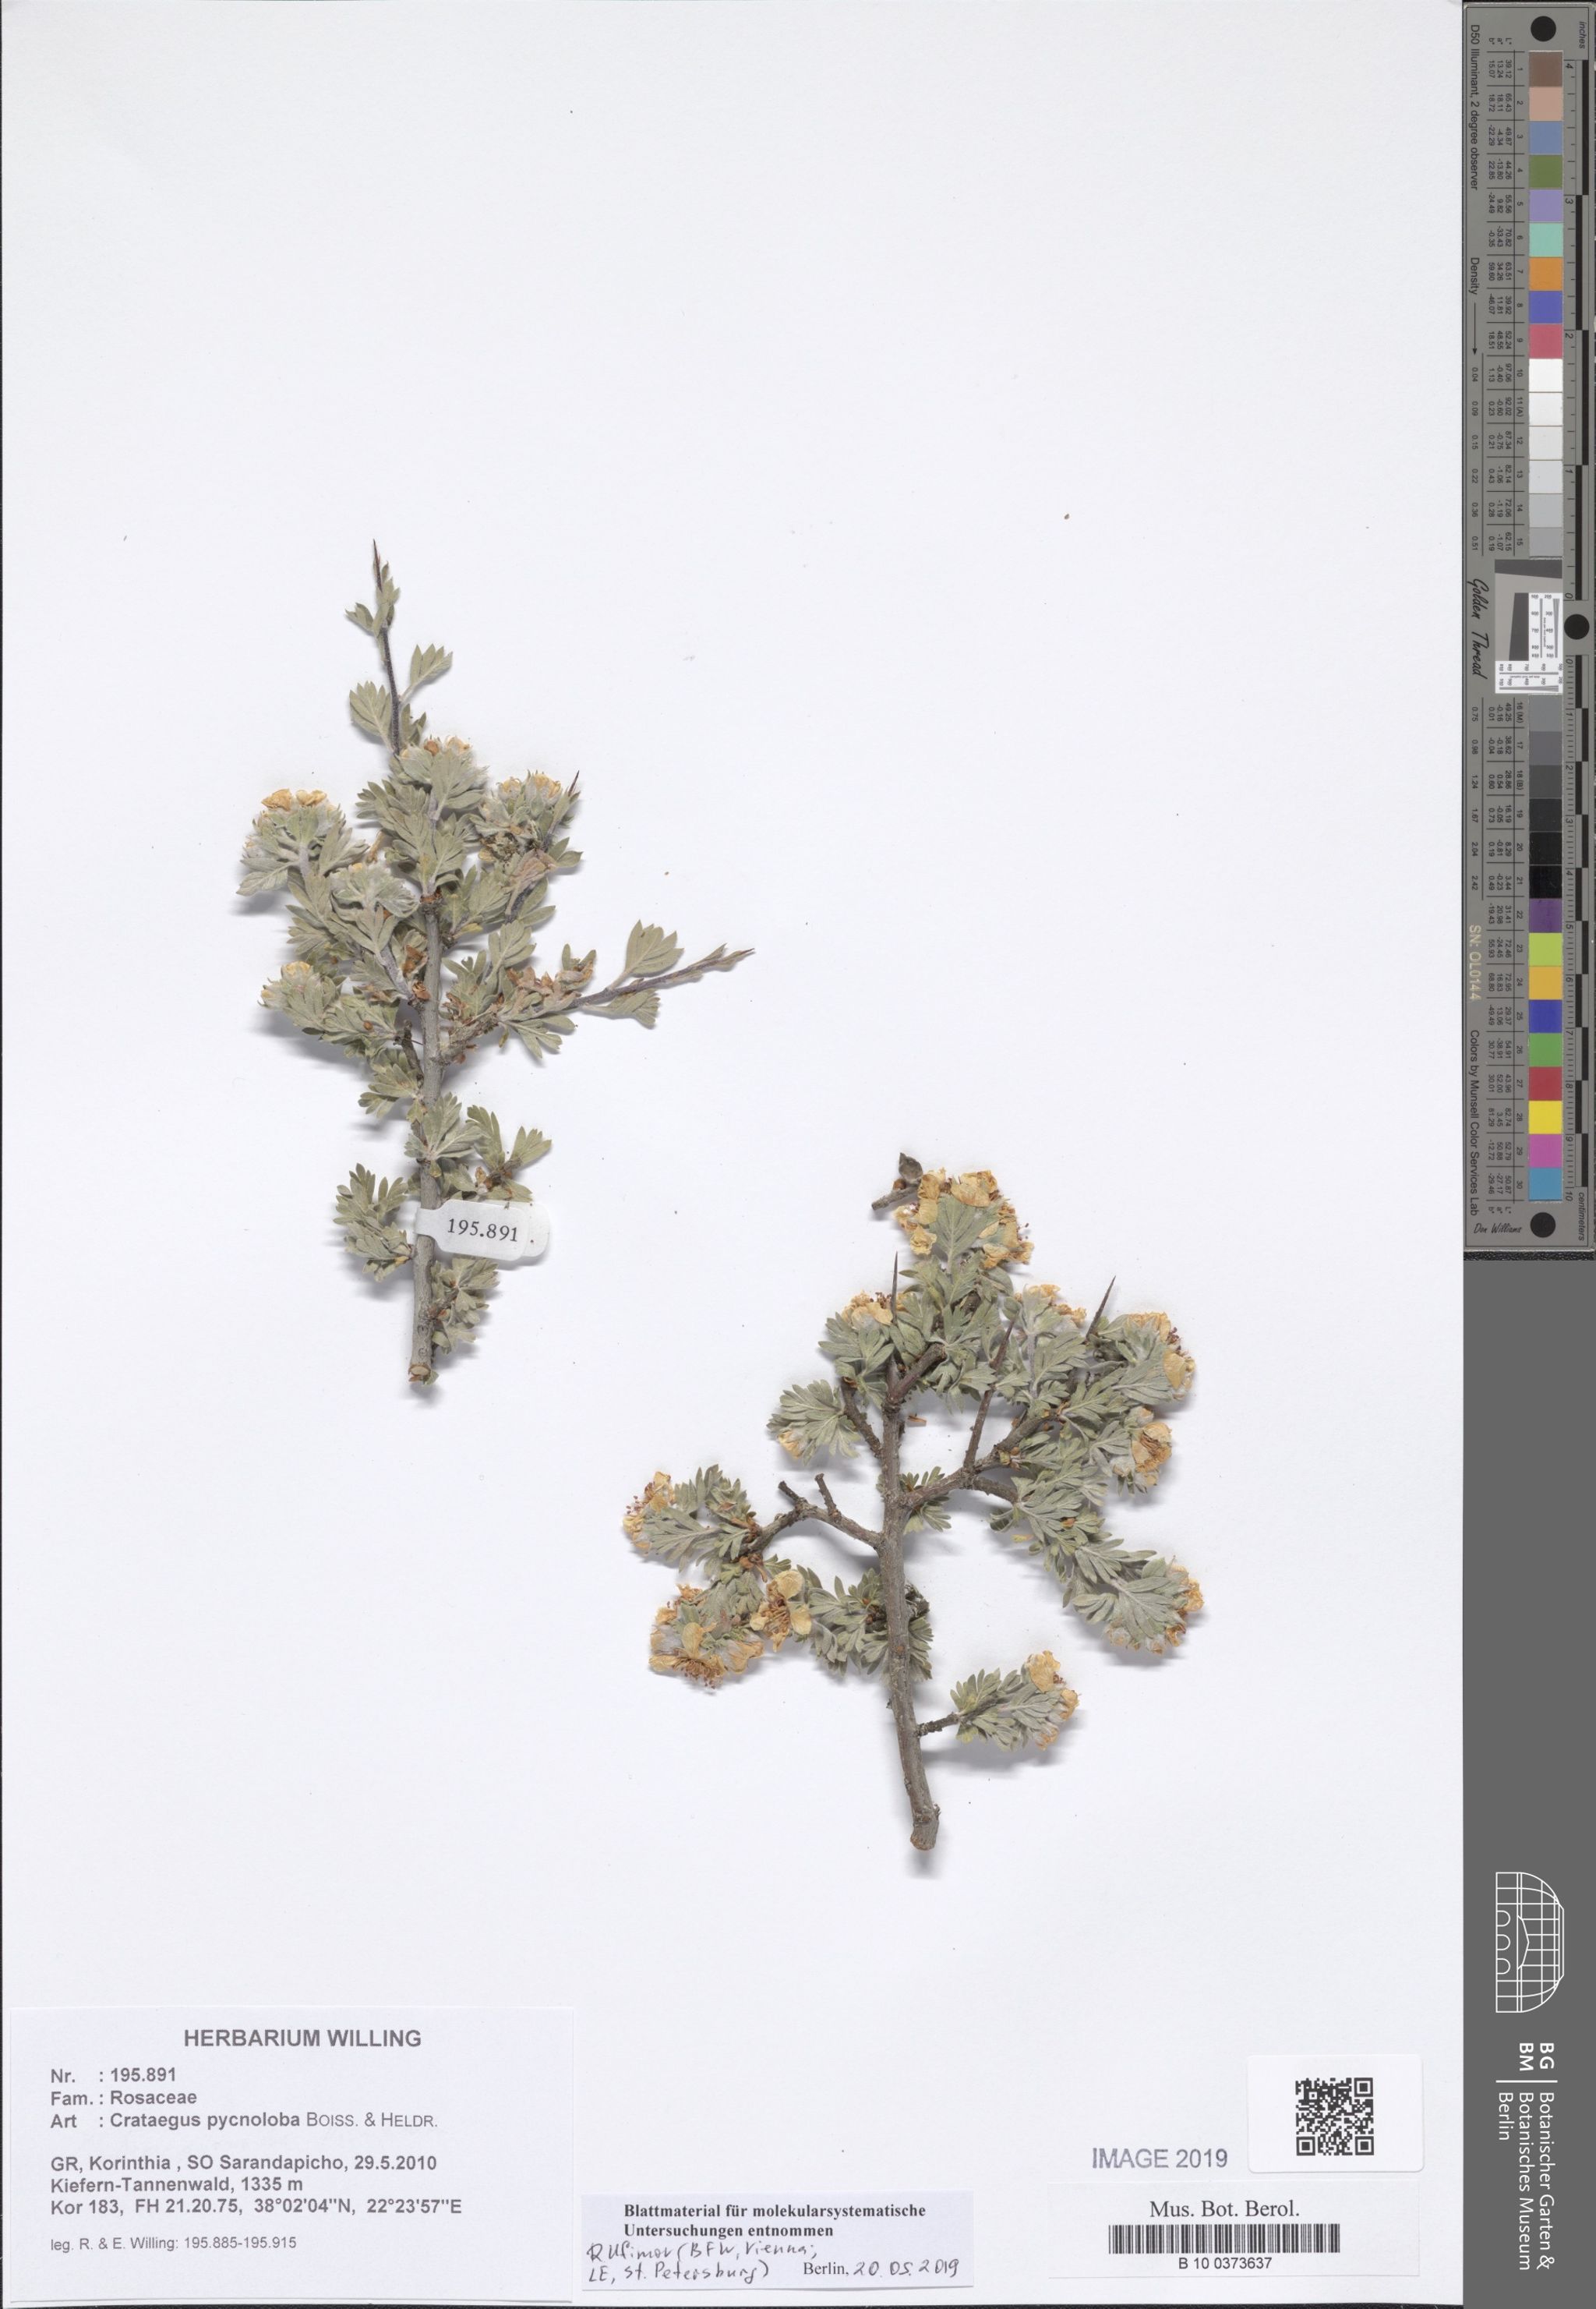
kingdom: Plantae
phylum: Tracheophyta
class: Magnoliopsida
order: Rosales
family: Rosaceae
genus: Crataegus
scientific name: Crataegus pycnoloba
